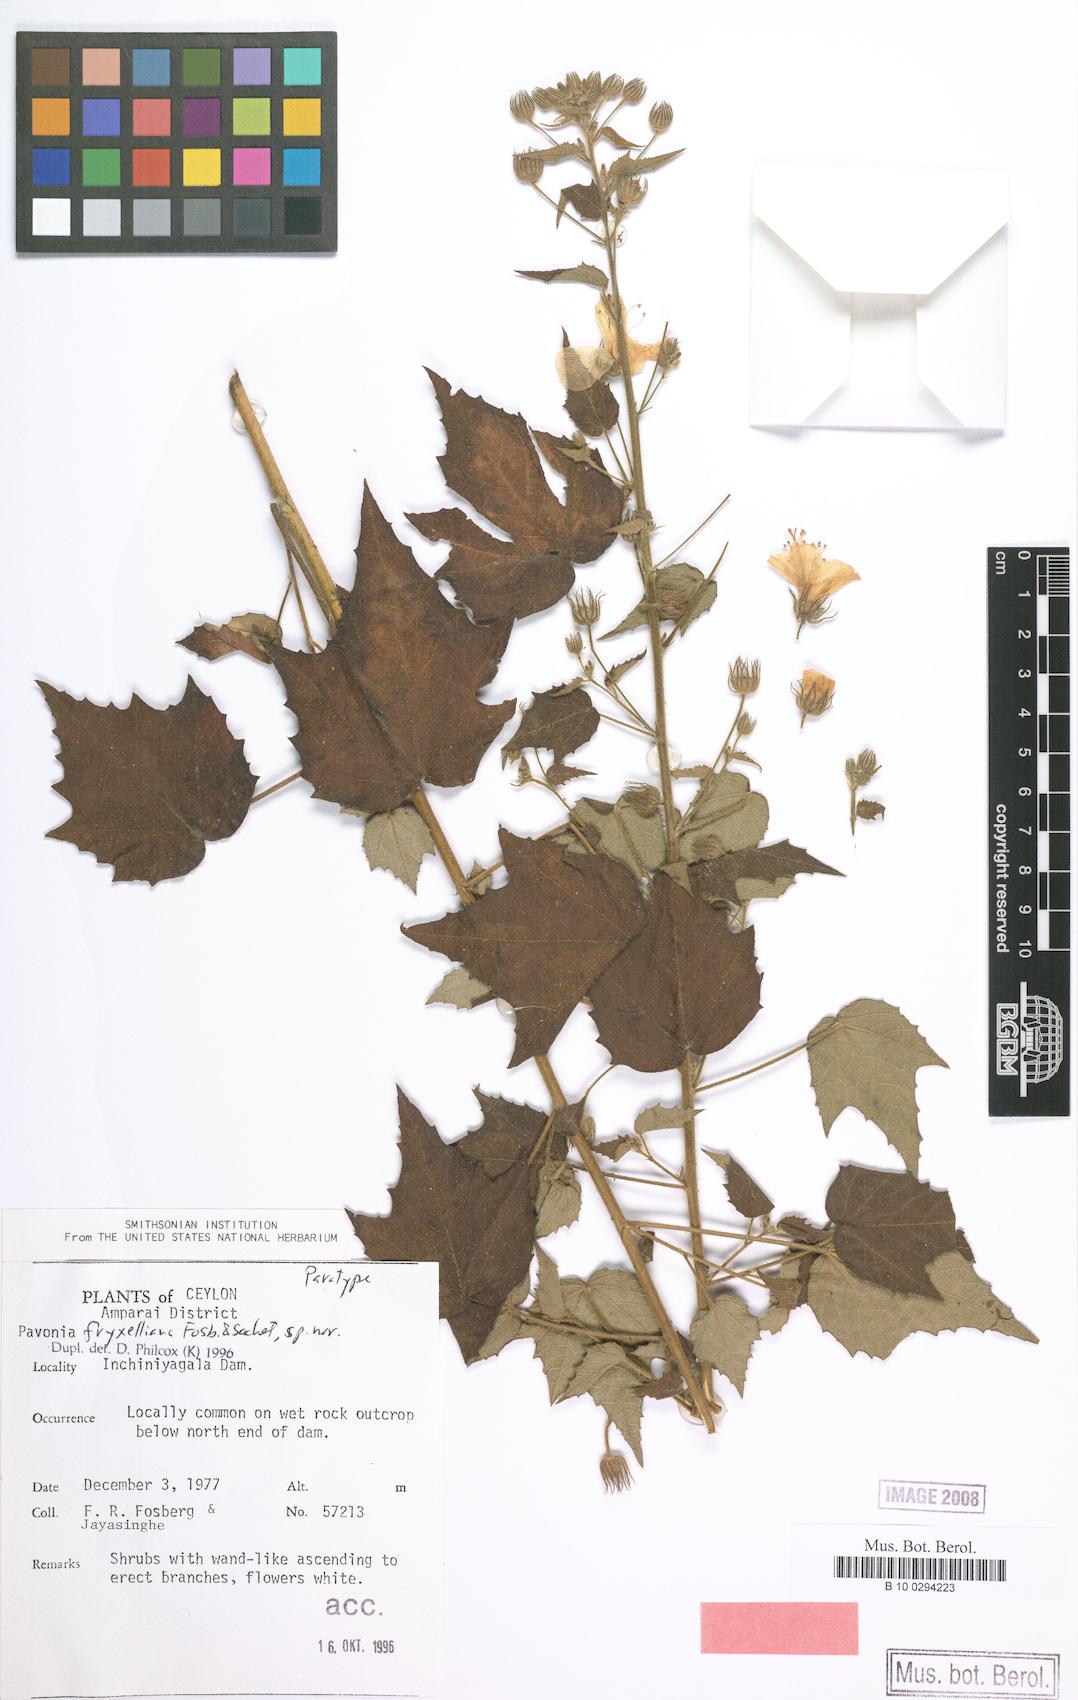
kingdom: Plantae
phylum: Tracheophyta
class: Magnoliopsida
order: Malvales
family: Malvaceae
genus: Pavonia
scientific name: Pavonia fryxelliana
